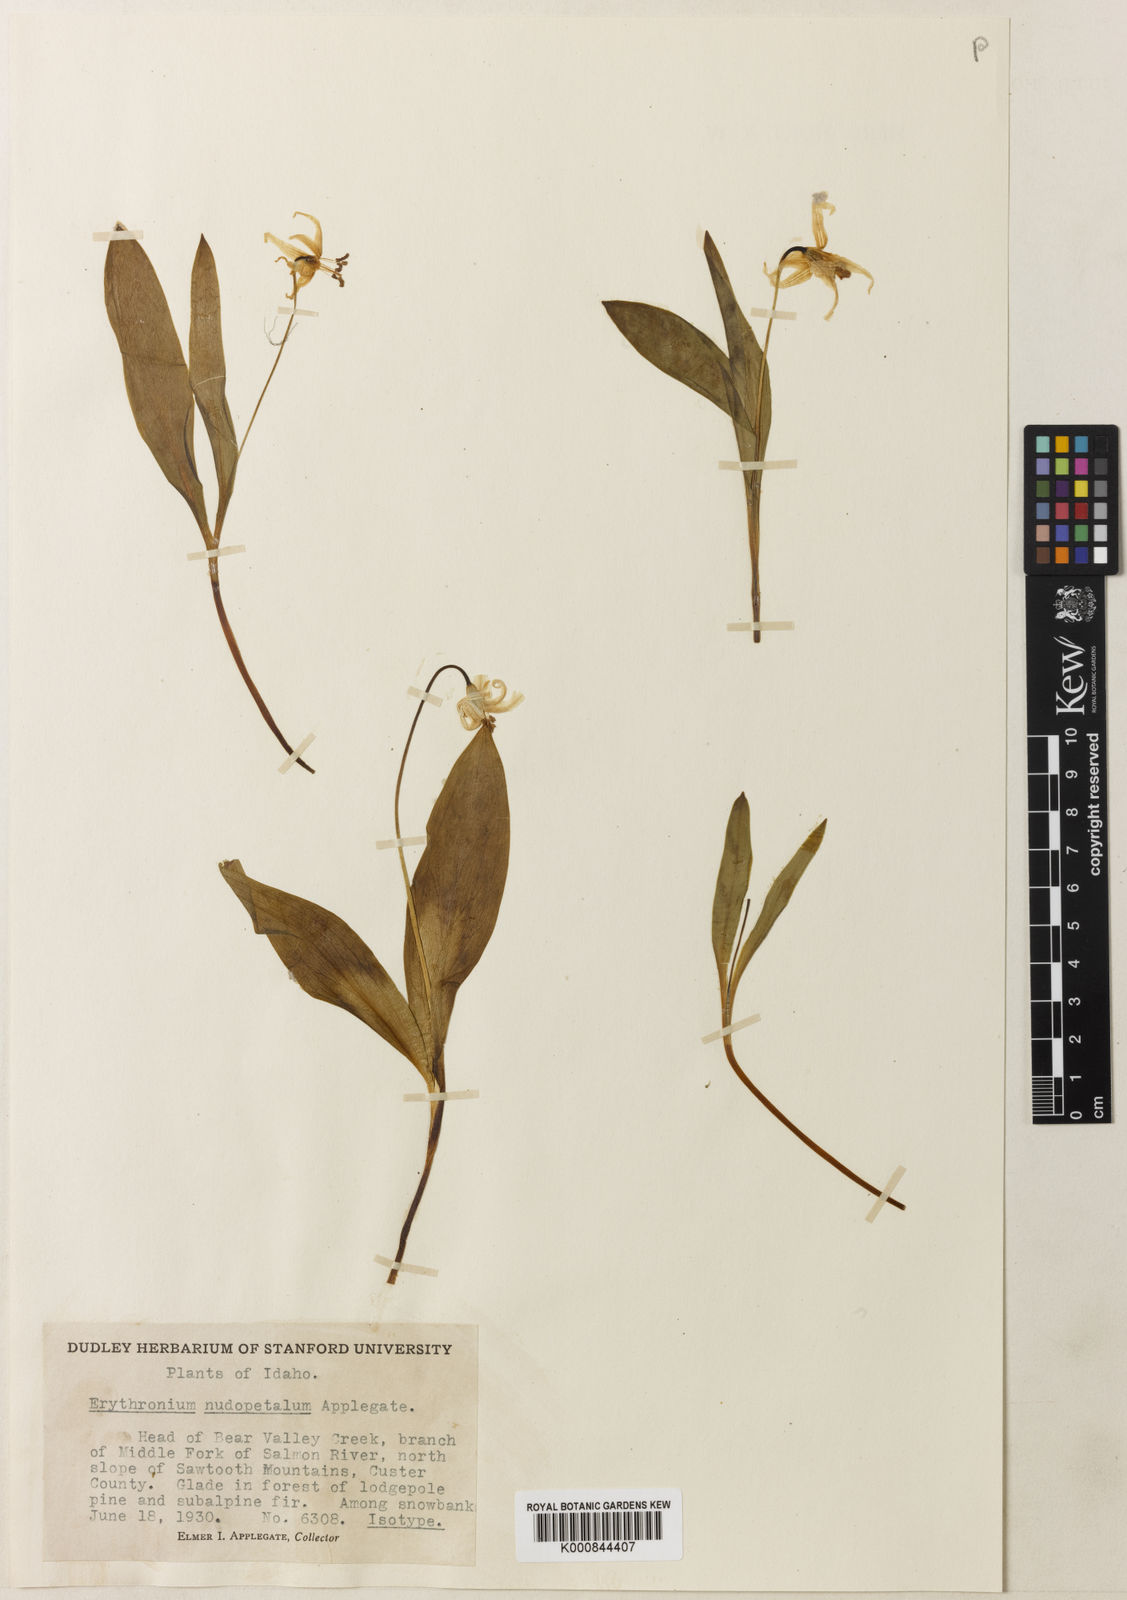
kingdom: Plantae
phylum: Tracheophyta
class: Liliopsida
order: Liliales
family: Liliaceae
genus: Erythronium
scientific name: Erythronium
